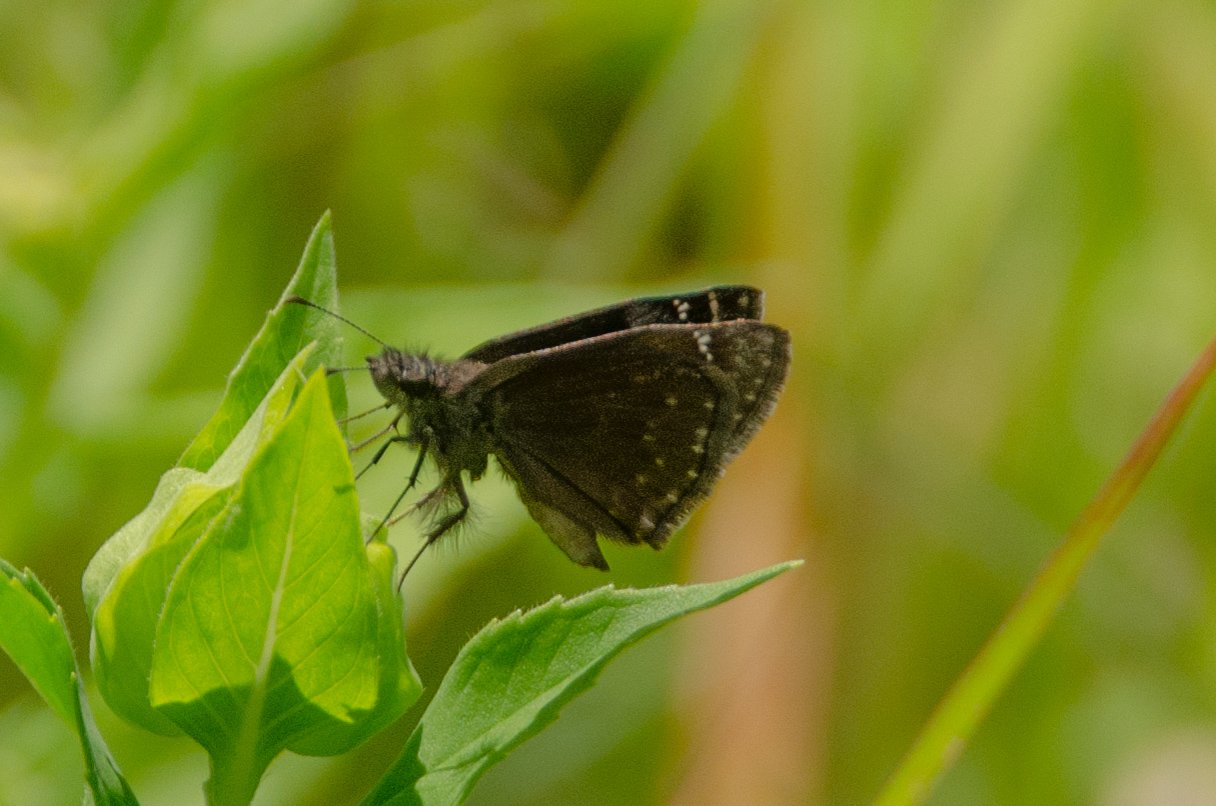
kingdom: Animalia
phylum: Arthropoda
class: Insecta
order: Lepidoptera
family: Hesperiidae
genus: Gesta
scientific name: Gesta
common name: Wild Indigo Duskywing
